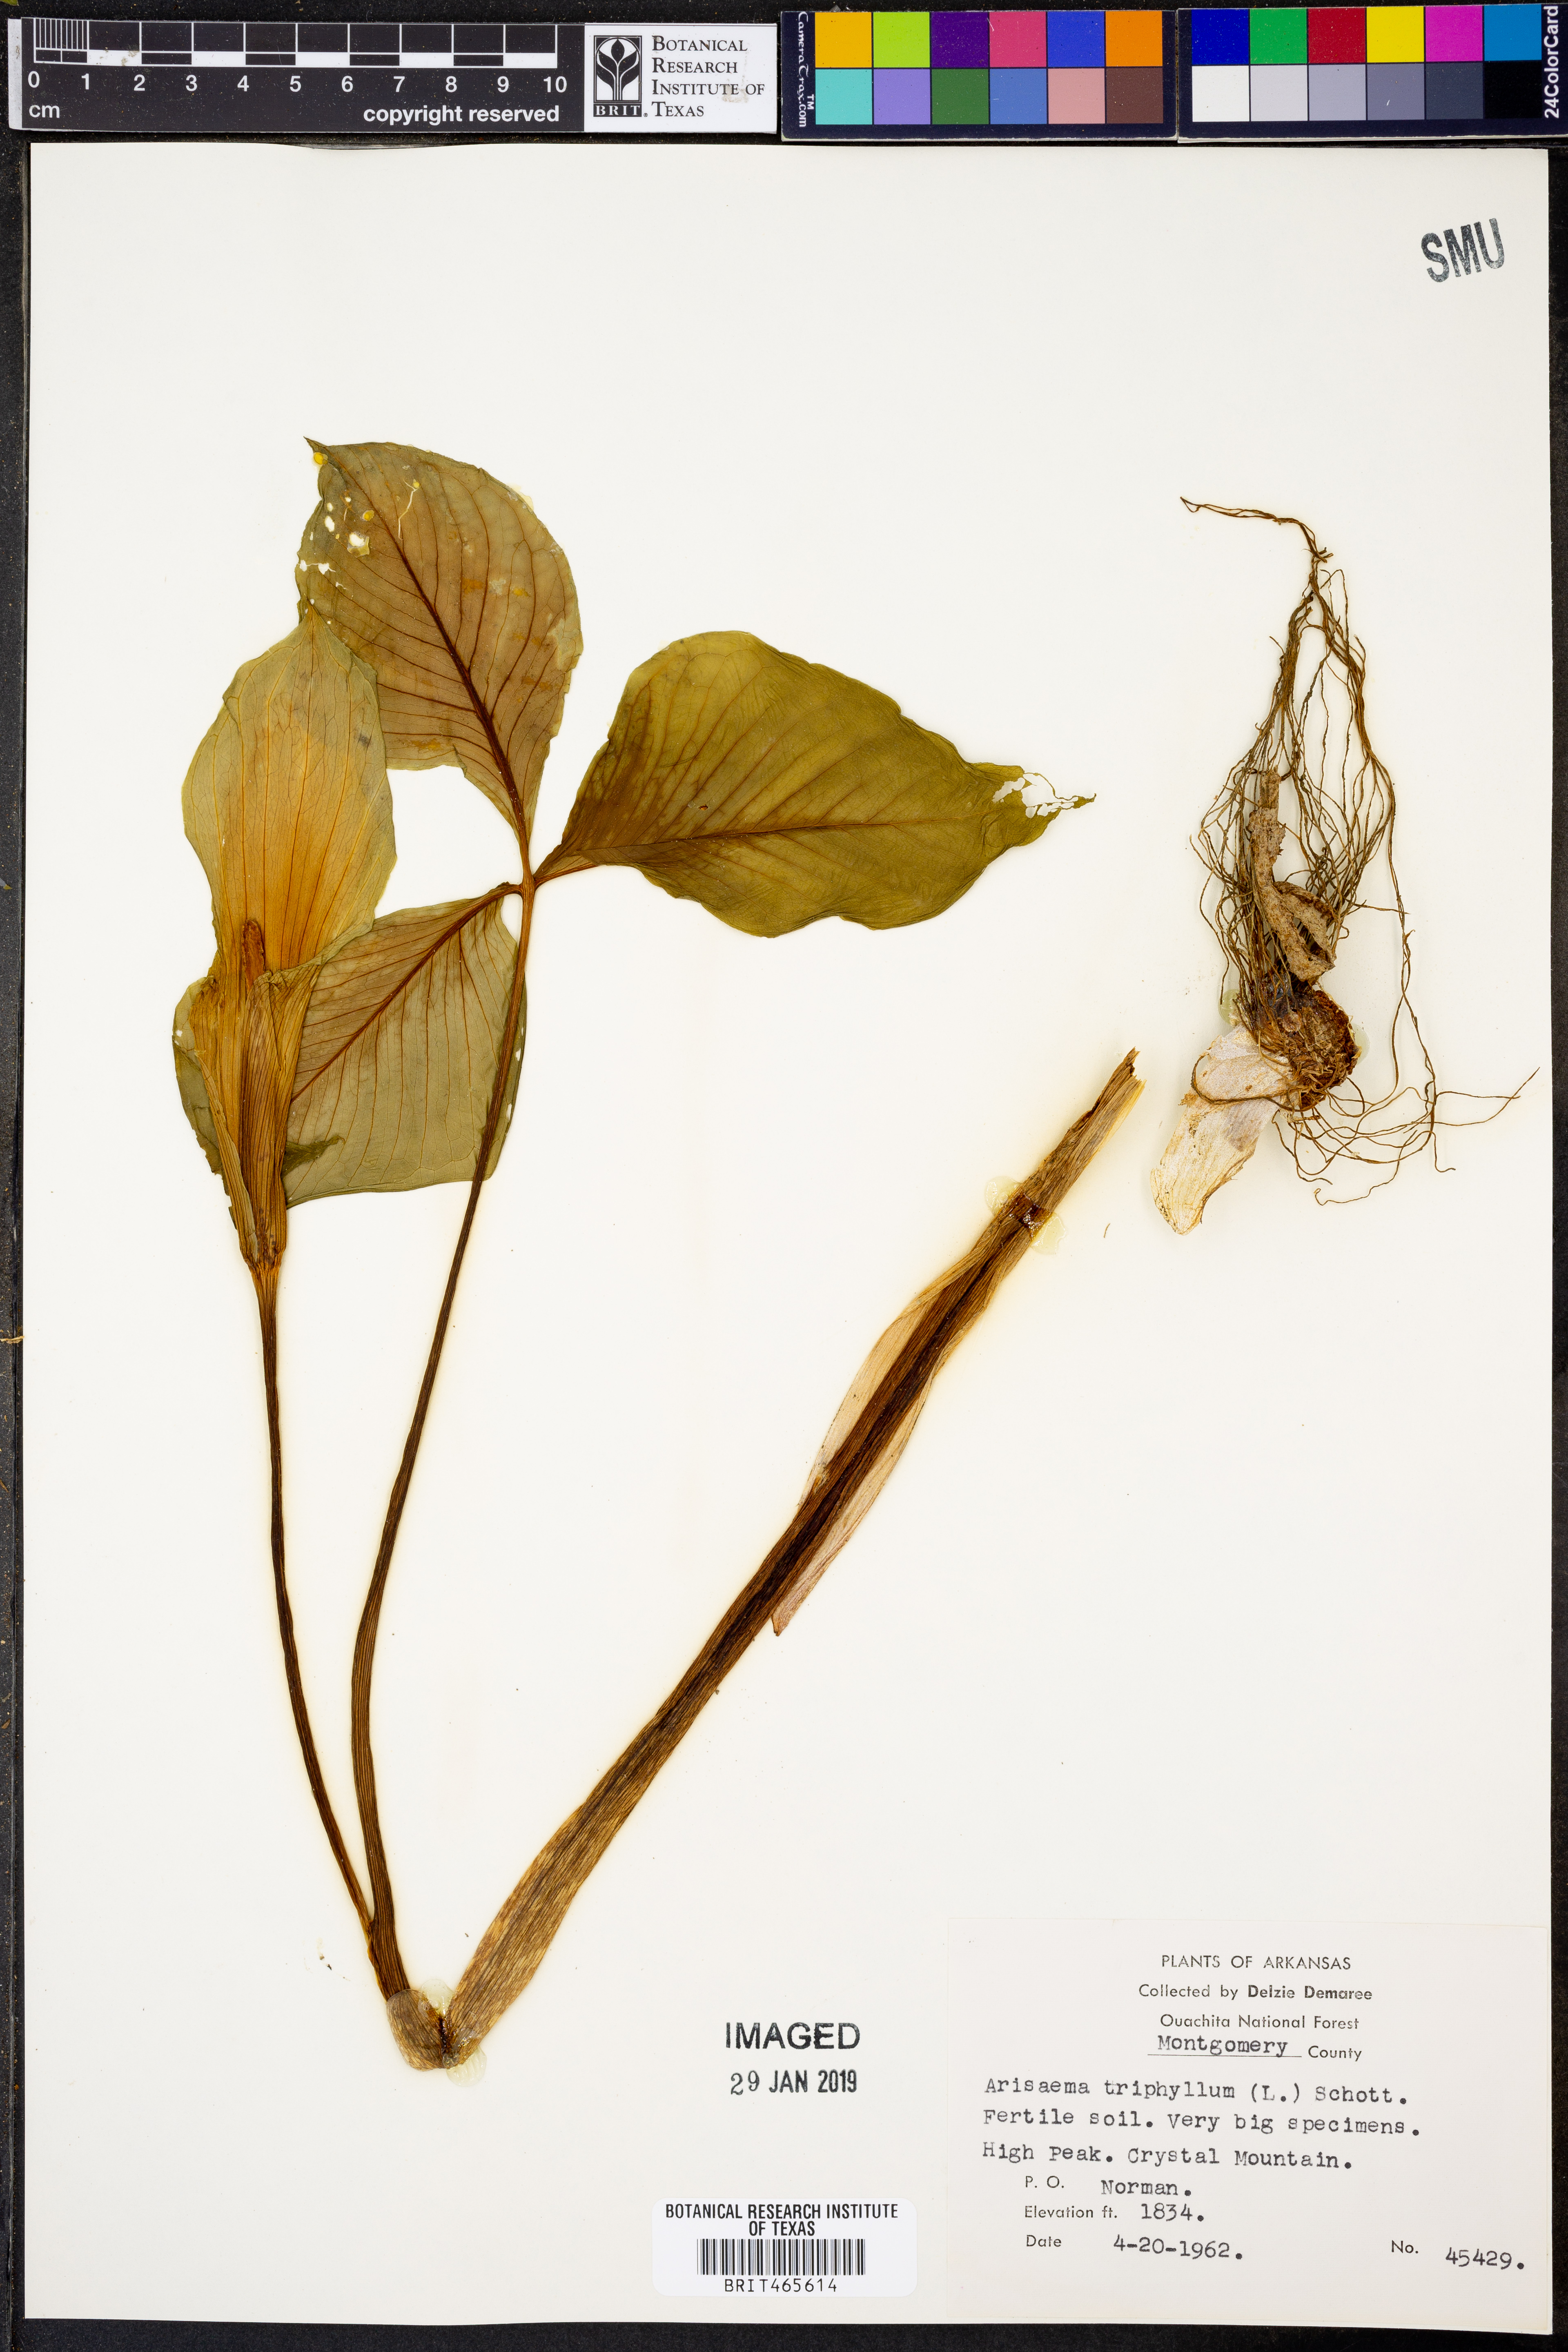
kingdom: Plantae
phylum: Tracheophyta
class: Liliopsida
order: Alismatales
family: Araceae
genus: Arisaema
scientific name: Arisaema triphyllum
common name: Jack-in-the-pulpit
